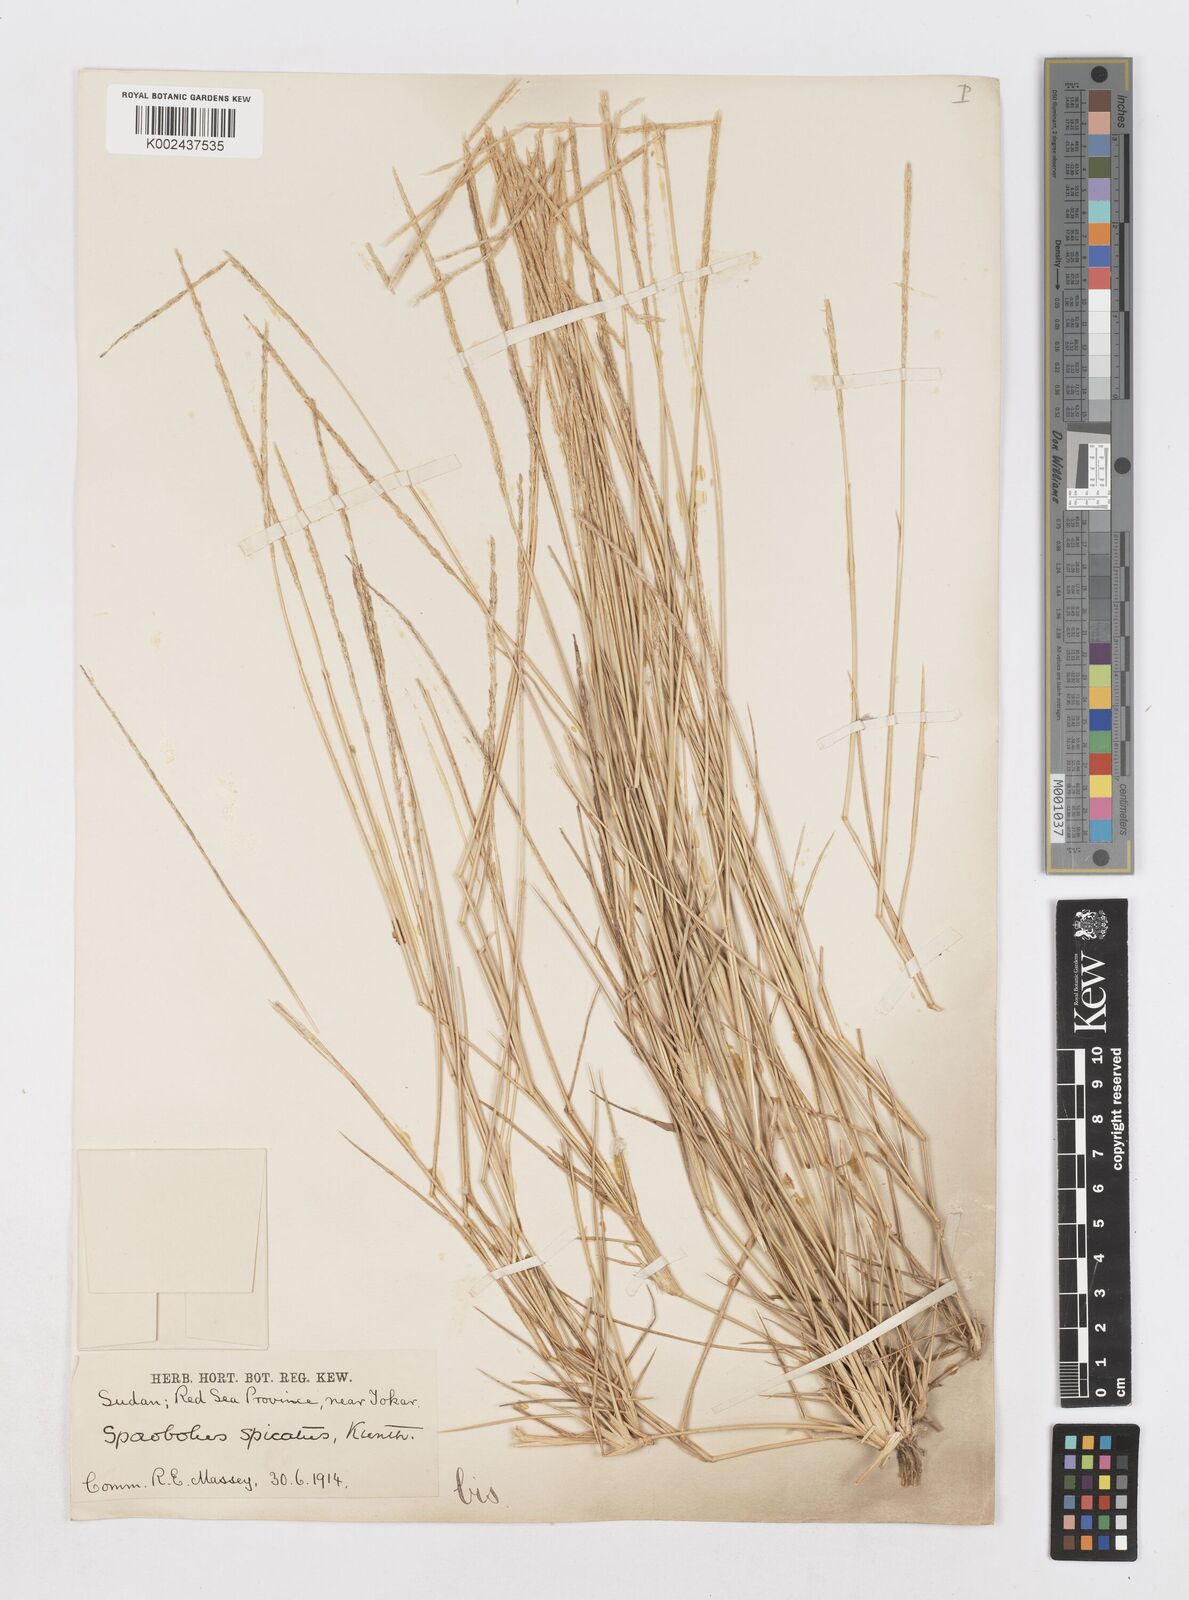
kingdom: Plantae
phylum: Tracheophyta
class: Liliopsida
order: Poales
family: Poaceae
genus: Sporobolus
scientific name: Sporobolus spicatus
